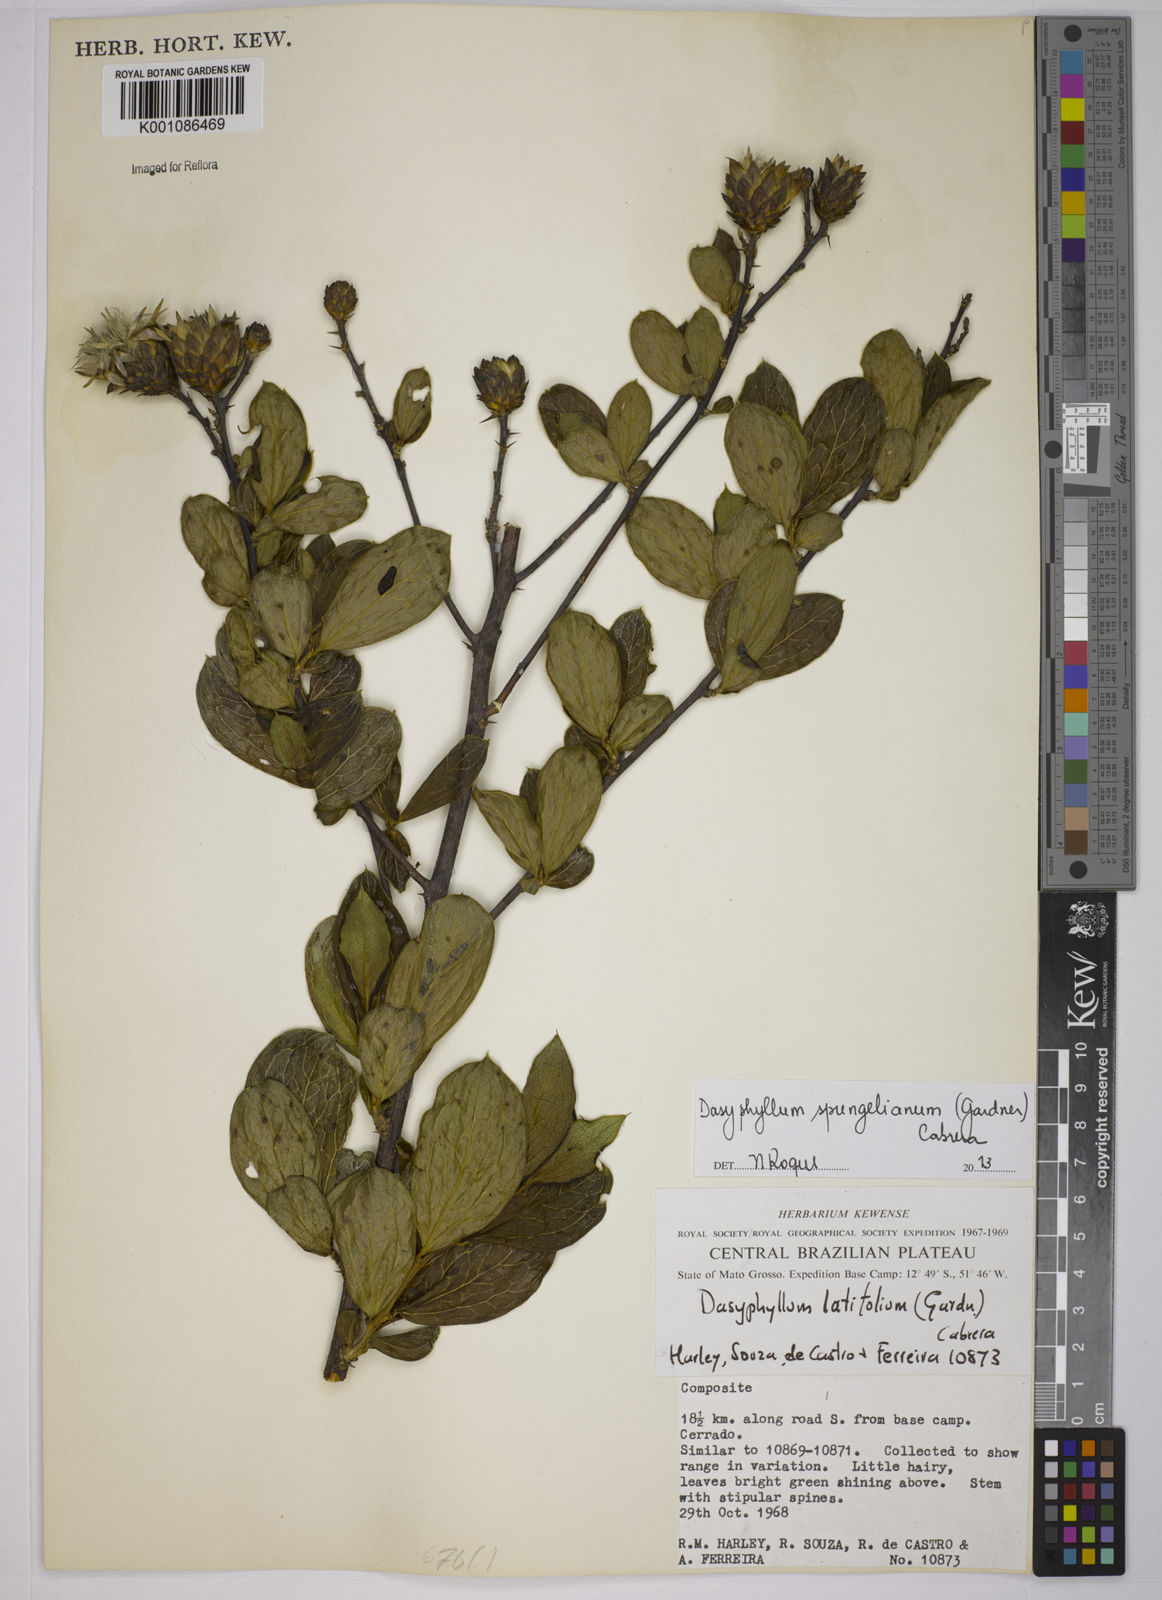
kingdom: Plantae
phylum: Tracheophyta
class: Magnoliopsida
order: Asterales
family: Asteraceae
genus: Dasyphyllum
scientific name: Dasyphyllum sprengelianum
